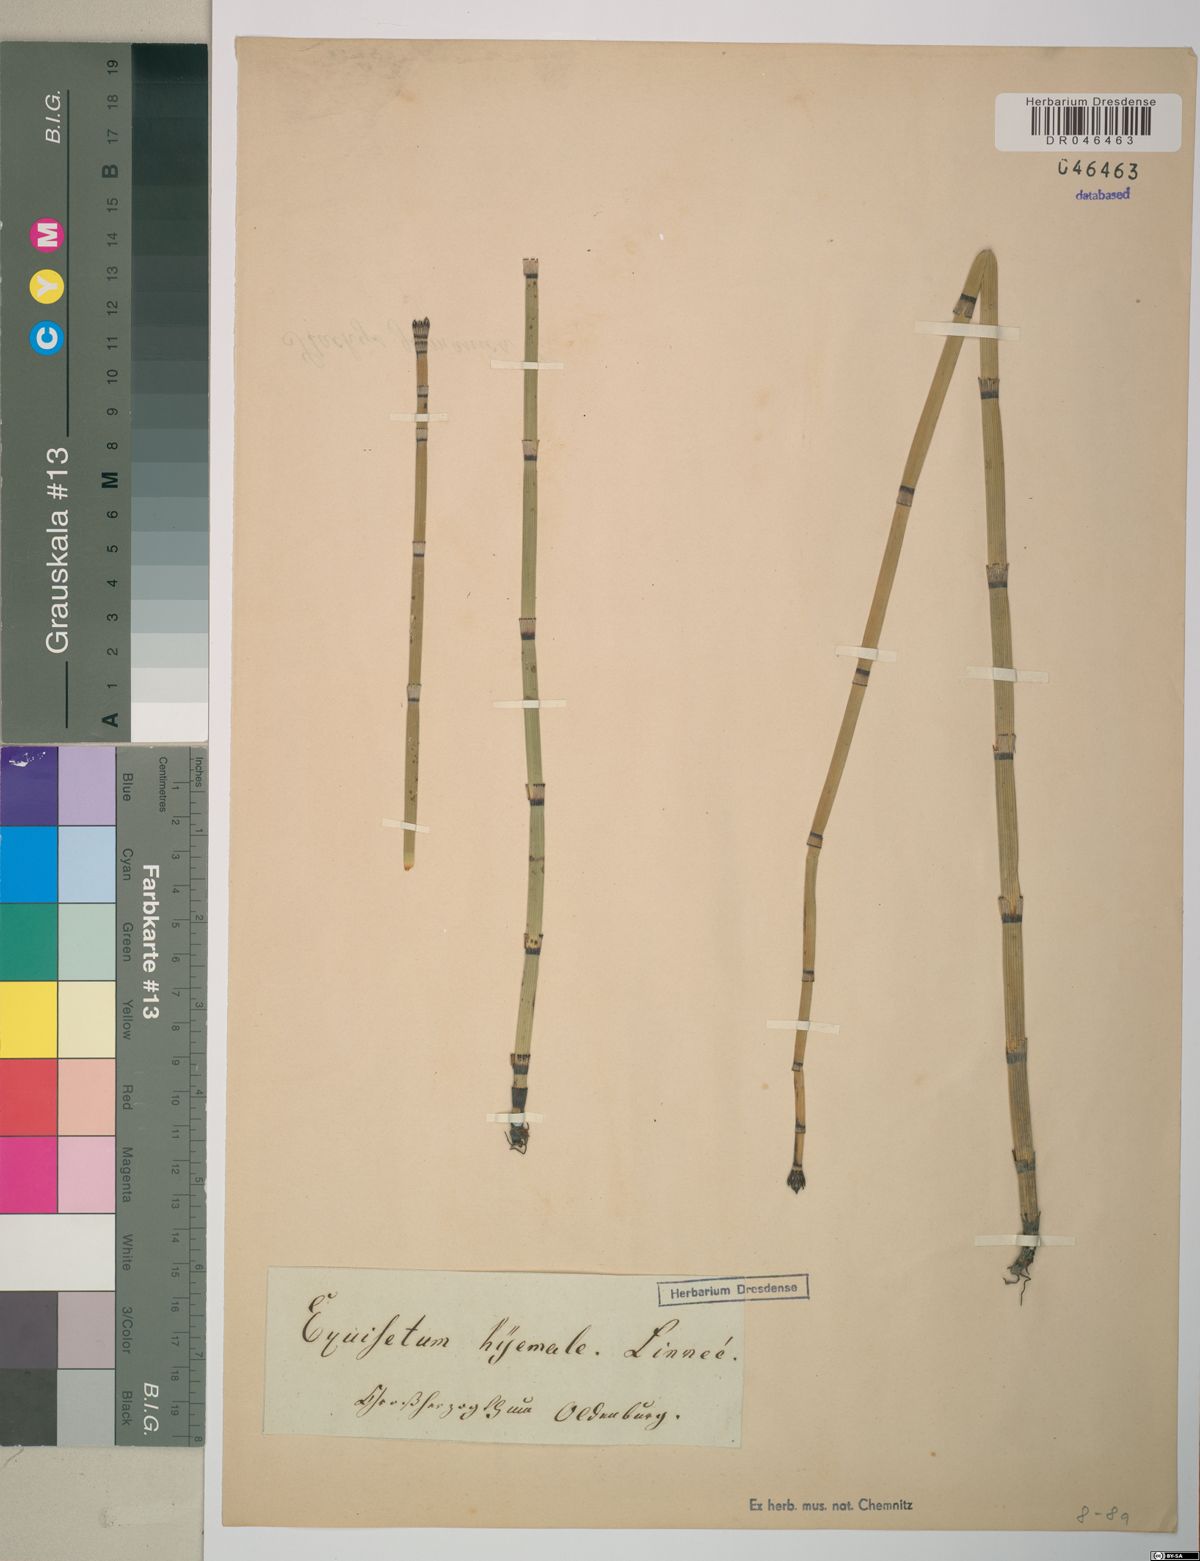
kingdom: Plantae
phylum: Tracheophyta
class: Polypodiopsida
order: Equisetales
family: Equisetaceae
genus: Equisetum
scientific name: Equisetum hyemale
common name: Rough horsetail
